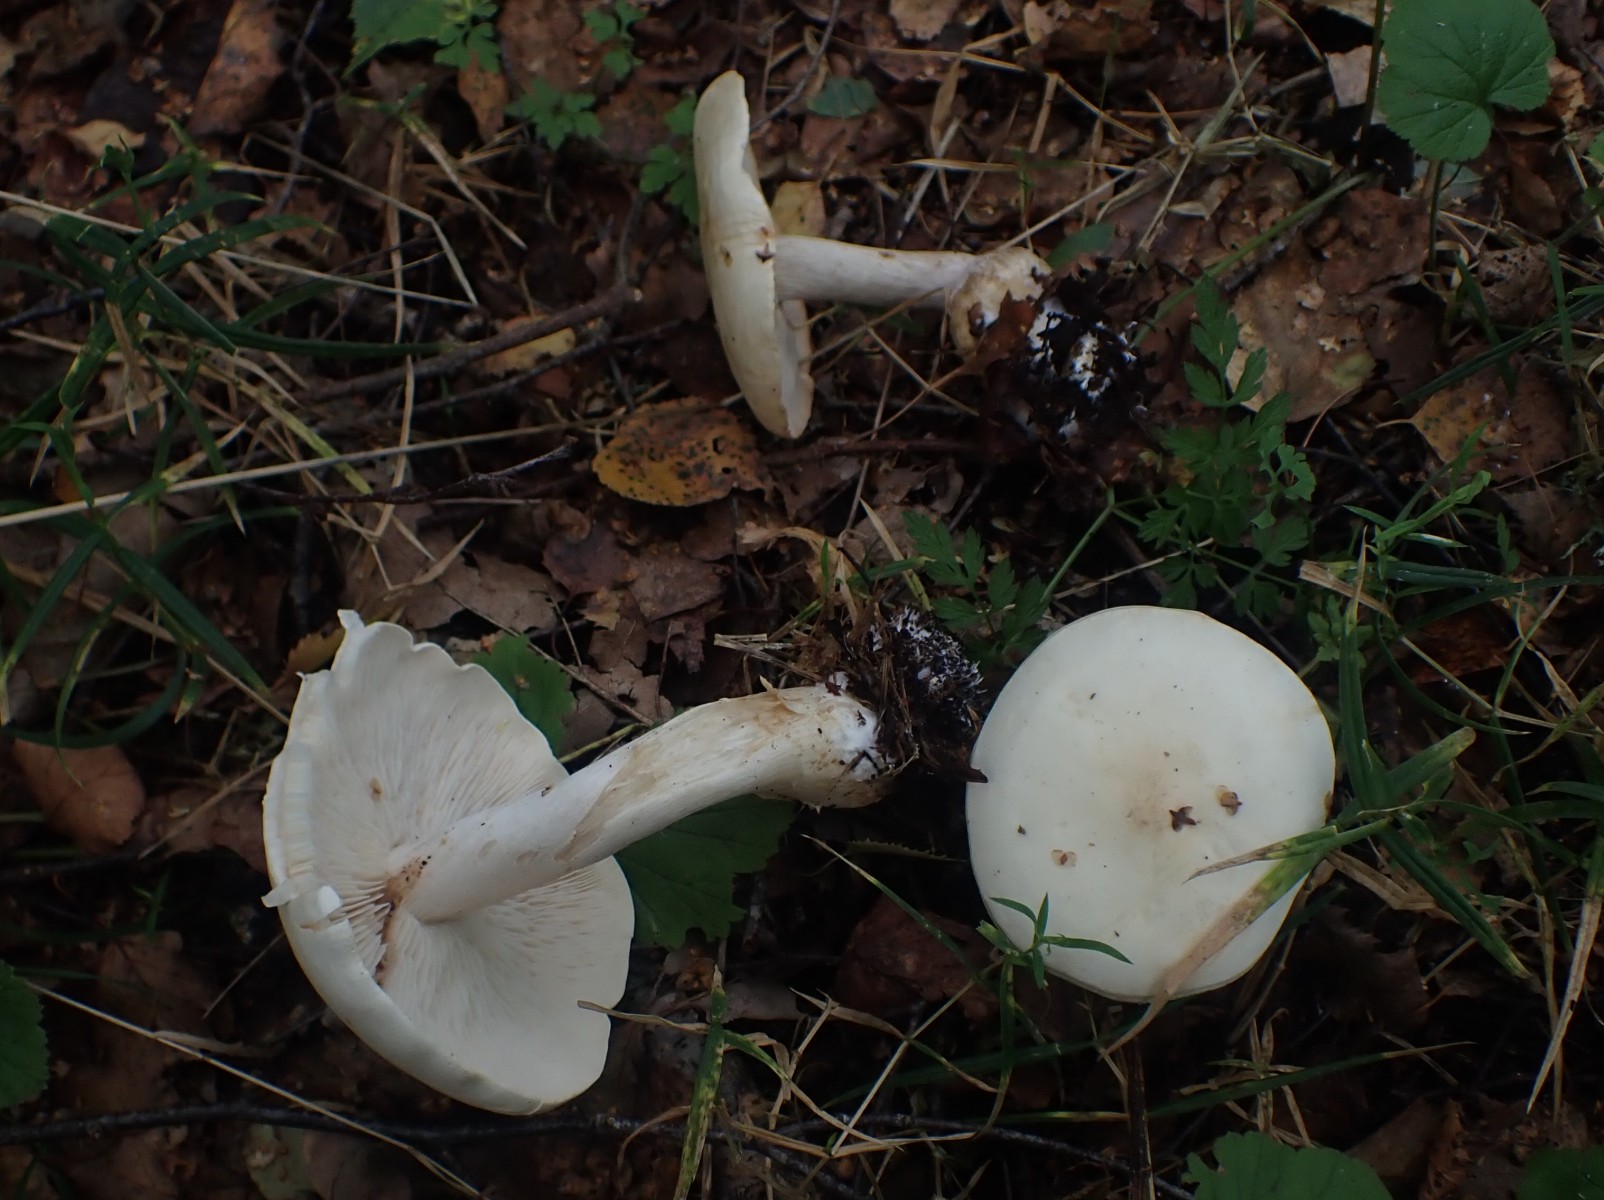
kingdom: Fungi
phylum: Basidiomycota
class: Agaricomycetes
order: Agaricales
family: Tricholomataceae
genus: Tricholoma
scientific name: Tricholoma stiparophyllum
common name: hvid ridderhat
